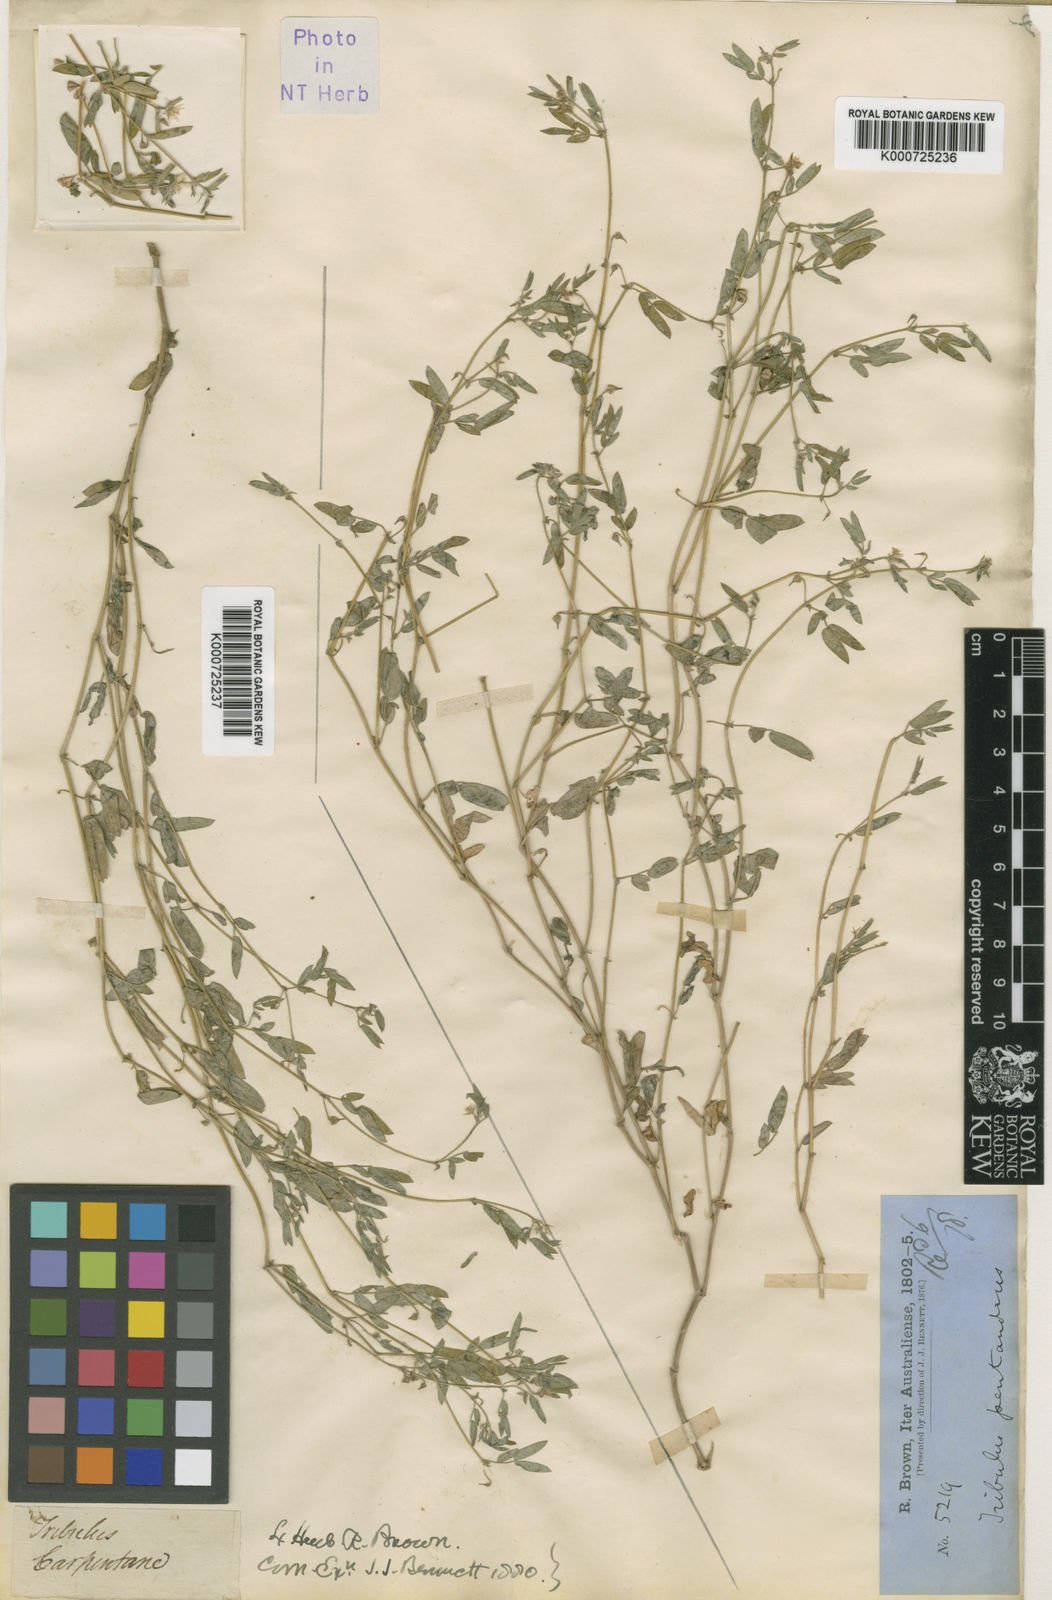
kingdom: Plantae
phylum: Tracheophyta
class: Magnoliopsida
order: Zygophyllales
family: Zygophyllaceae
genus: Tribulopis
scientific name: Tribulopis pentandra
